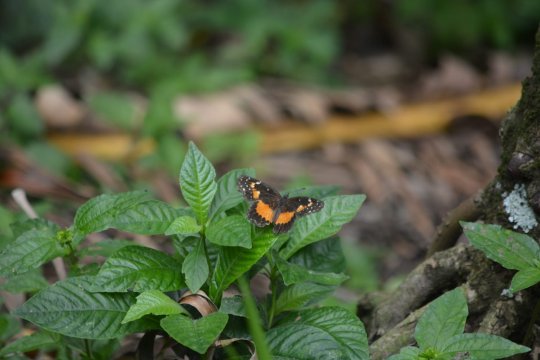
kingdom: Animalia
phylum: Arthropoda
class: Insecta
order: Lepidoptera
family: Nymphalidae
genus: Chlosyne
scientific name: Chlosyne lacinia
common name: Bordered Patch
